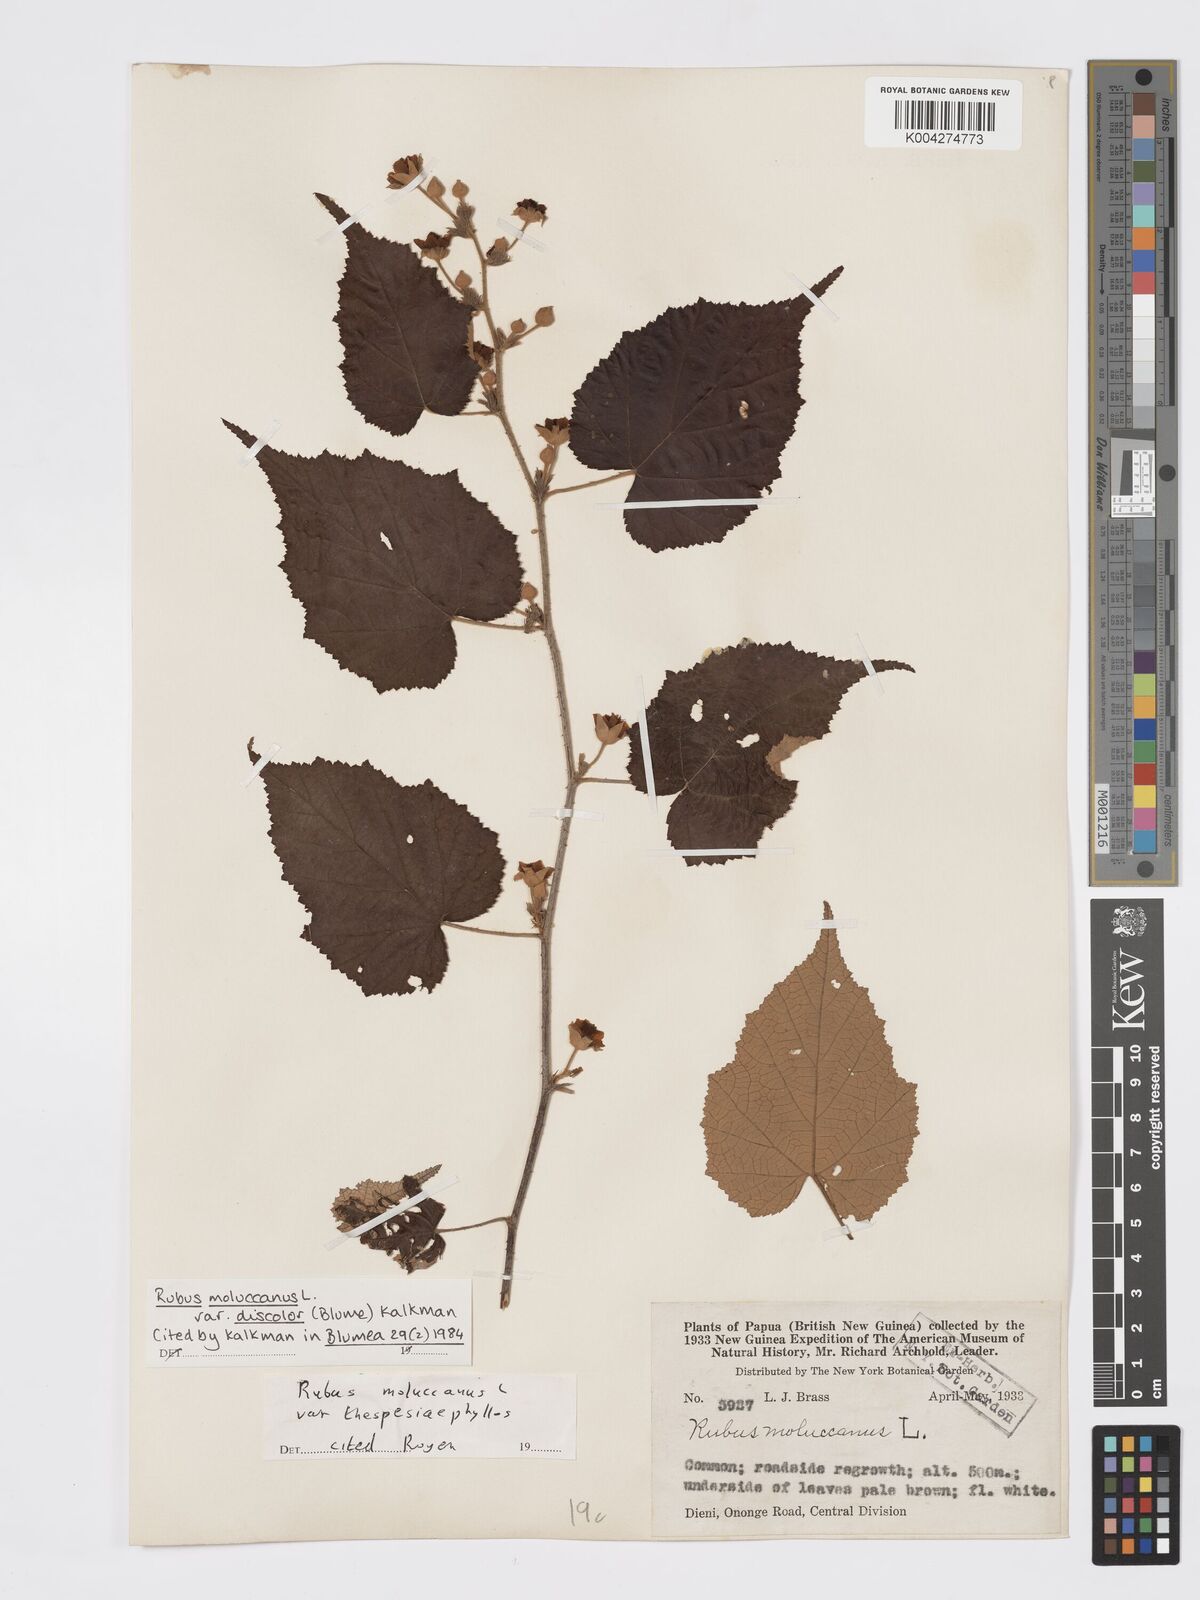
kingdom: Plantae
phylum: Tracheophyta
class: Magnoliopsida
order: Rosales
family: Rosaceae
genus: Rubus
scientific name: Rubus moluccanus
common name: Wild raspberry
